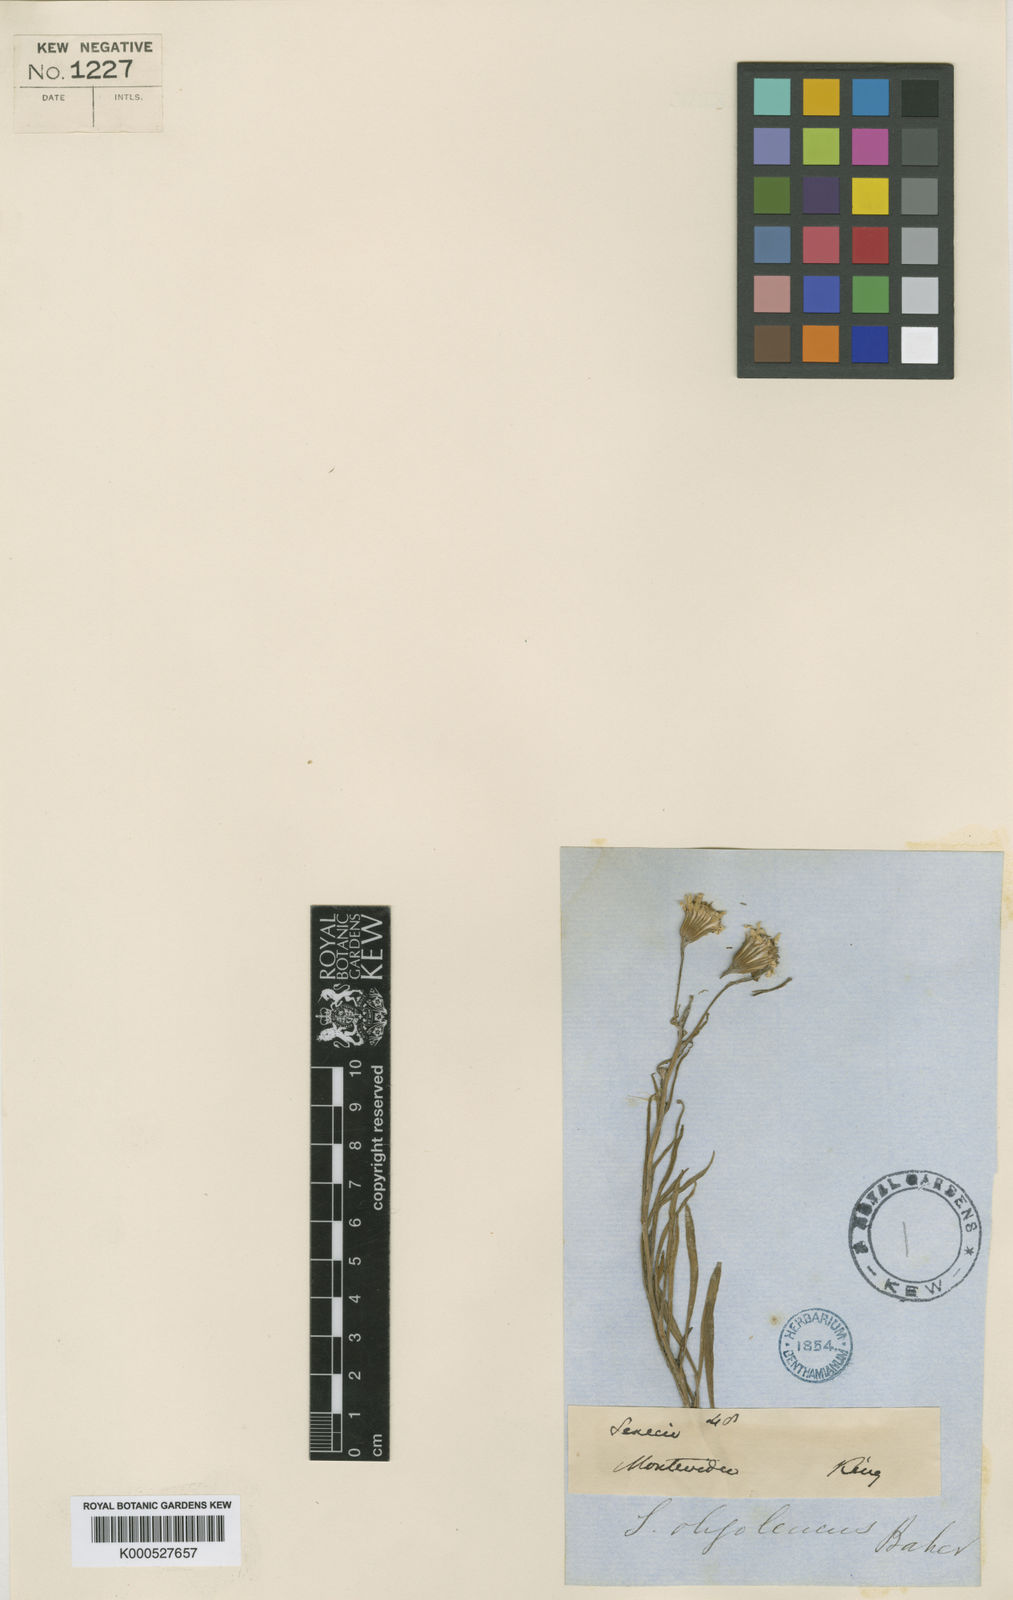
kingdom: Plantae
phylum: Tracheophyta
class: Magnoliopsida
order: Asterales
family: Asteraceae
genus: Senecio
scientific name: Senecio oligoleucus
